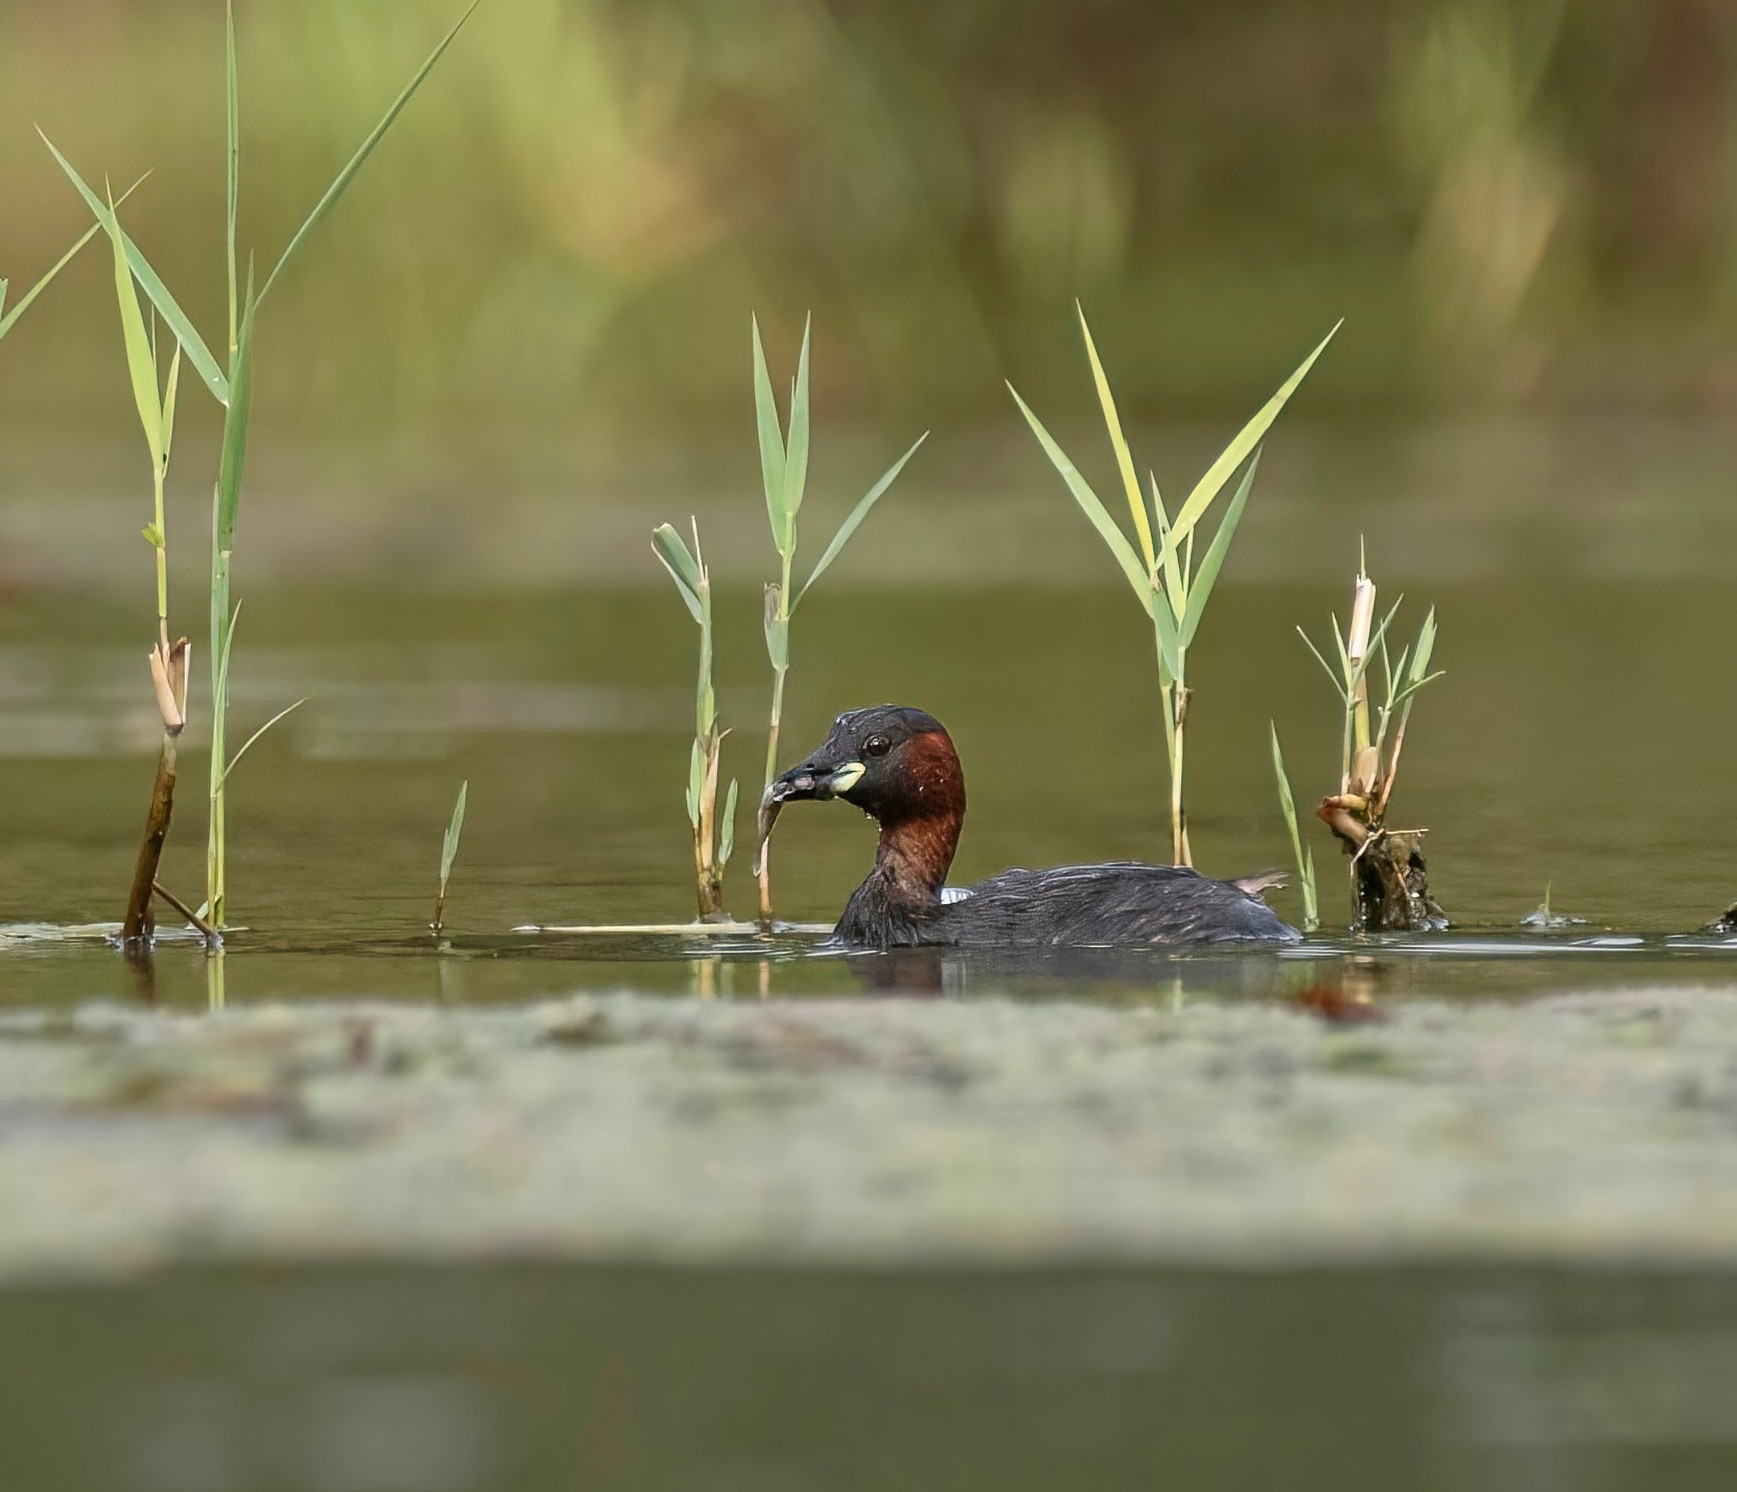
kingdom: Animalia
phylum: Chordata
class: Aves
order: Podicipediformes
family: Podicipedidae
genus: Tachybaptus
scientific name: Tachybaptus ruficollis
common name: Lille lappedykker
